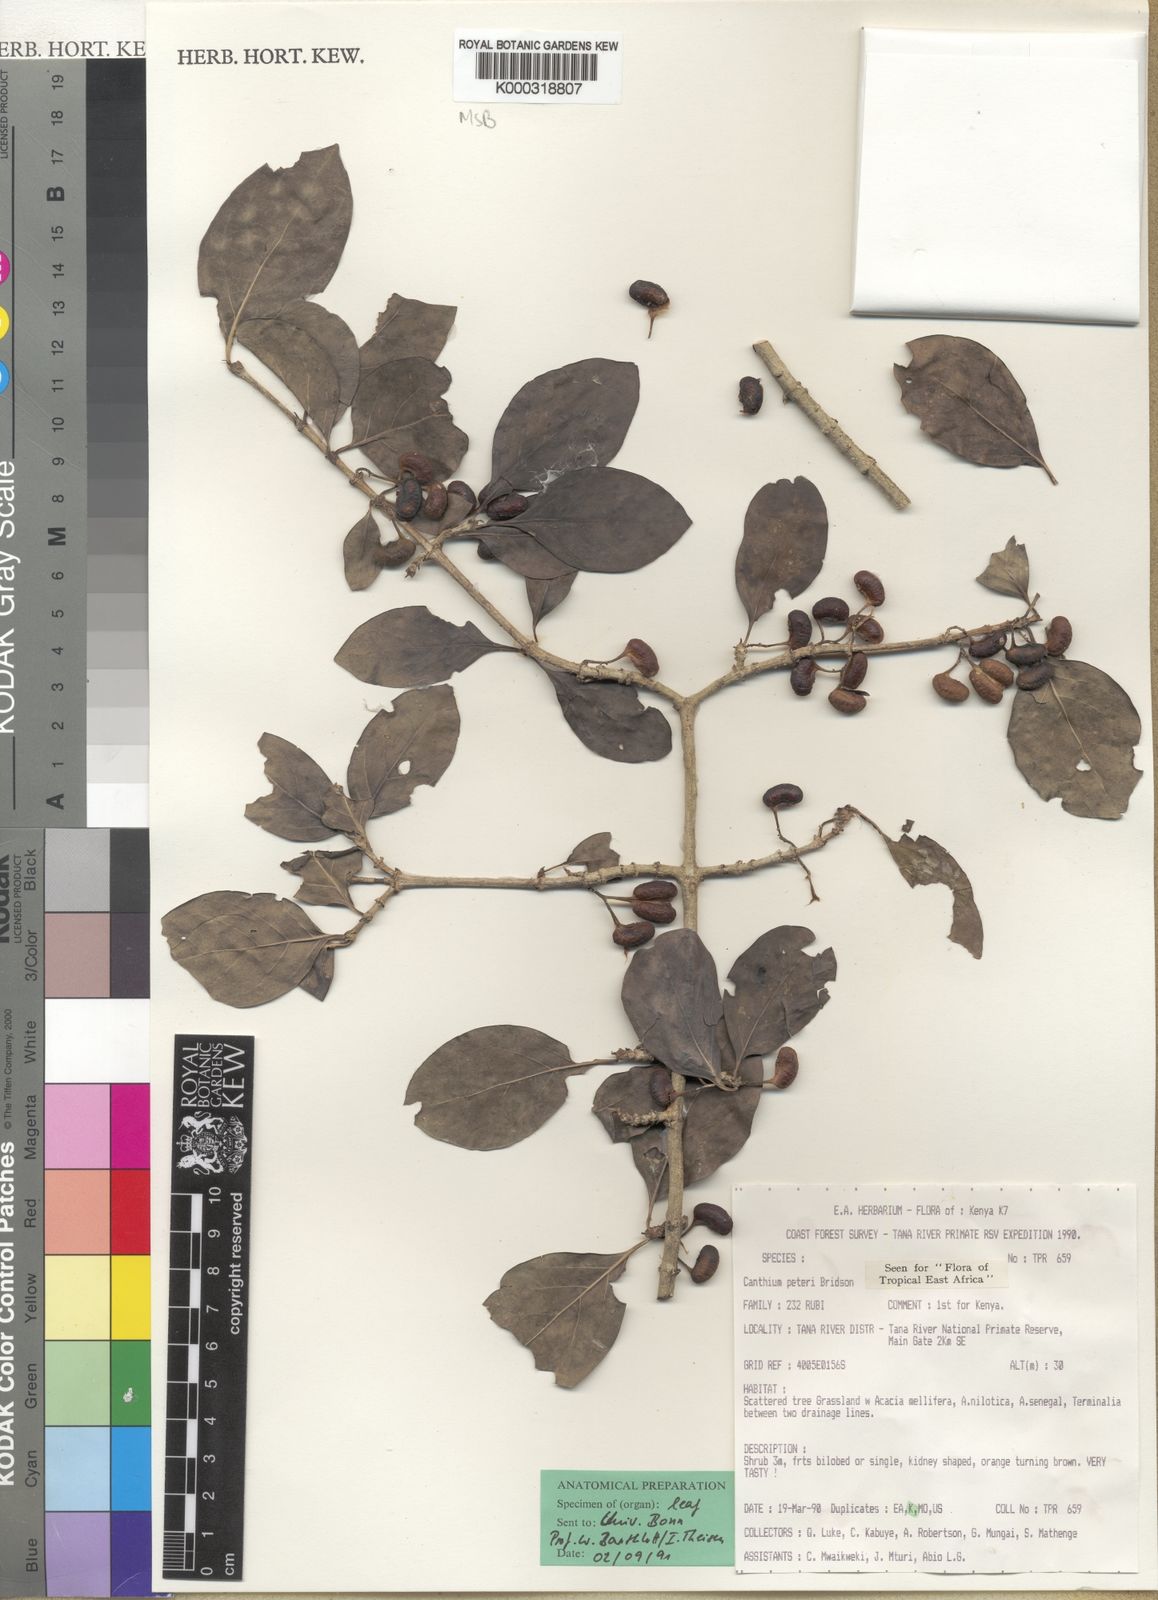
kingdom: Plantae
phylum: Tracheophyta
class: Magnoliopsida
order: Gentianales
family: Rubiaceae
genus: Afrocanthium
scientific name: Afrocanthium peteri
